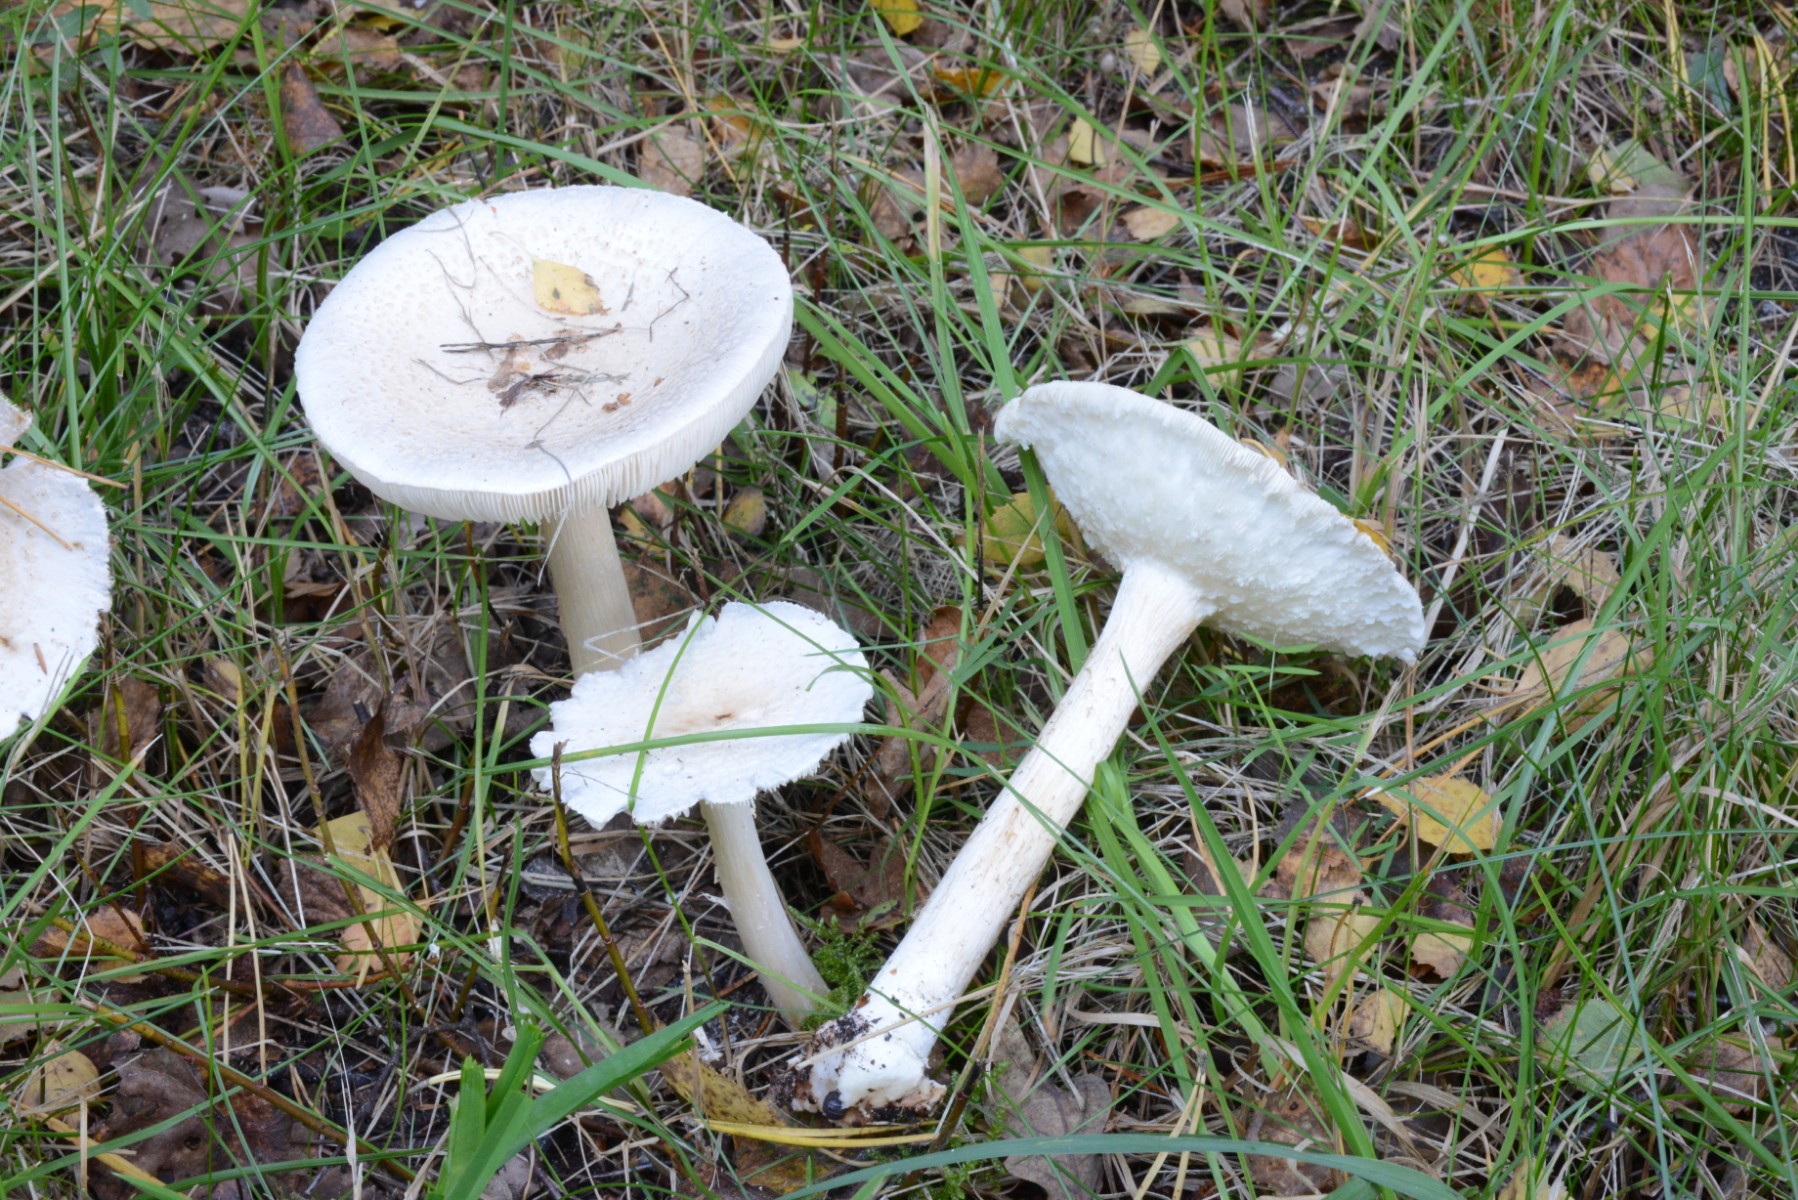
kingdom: Fungi
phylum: Basidiomycota
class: Agaricomycetes
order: Agaricales
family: Agaricaceae
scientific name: Agaricaceae
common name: champignonfamilien
